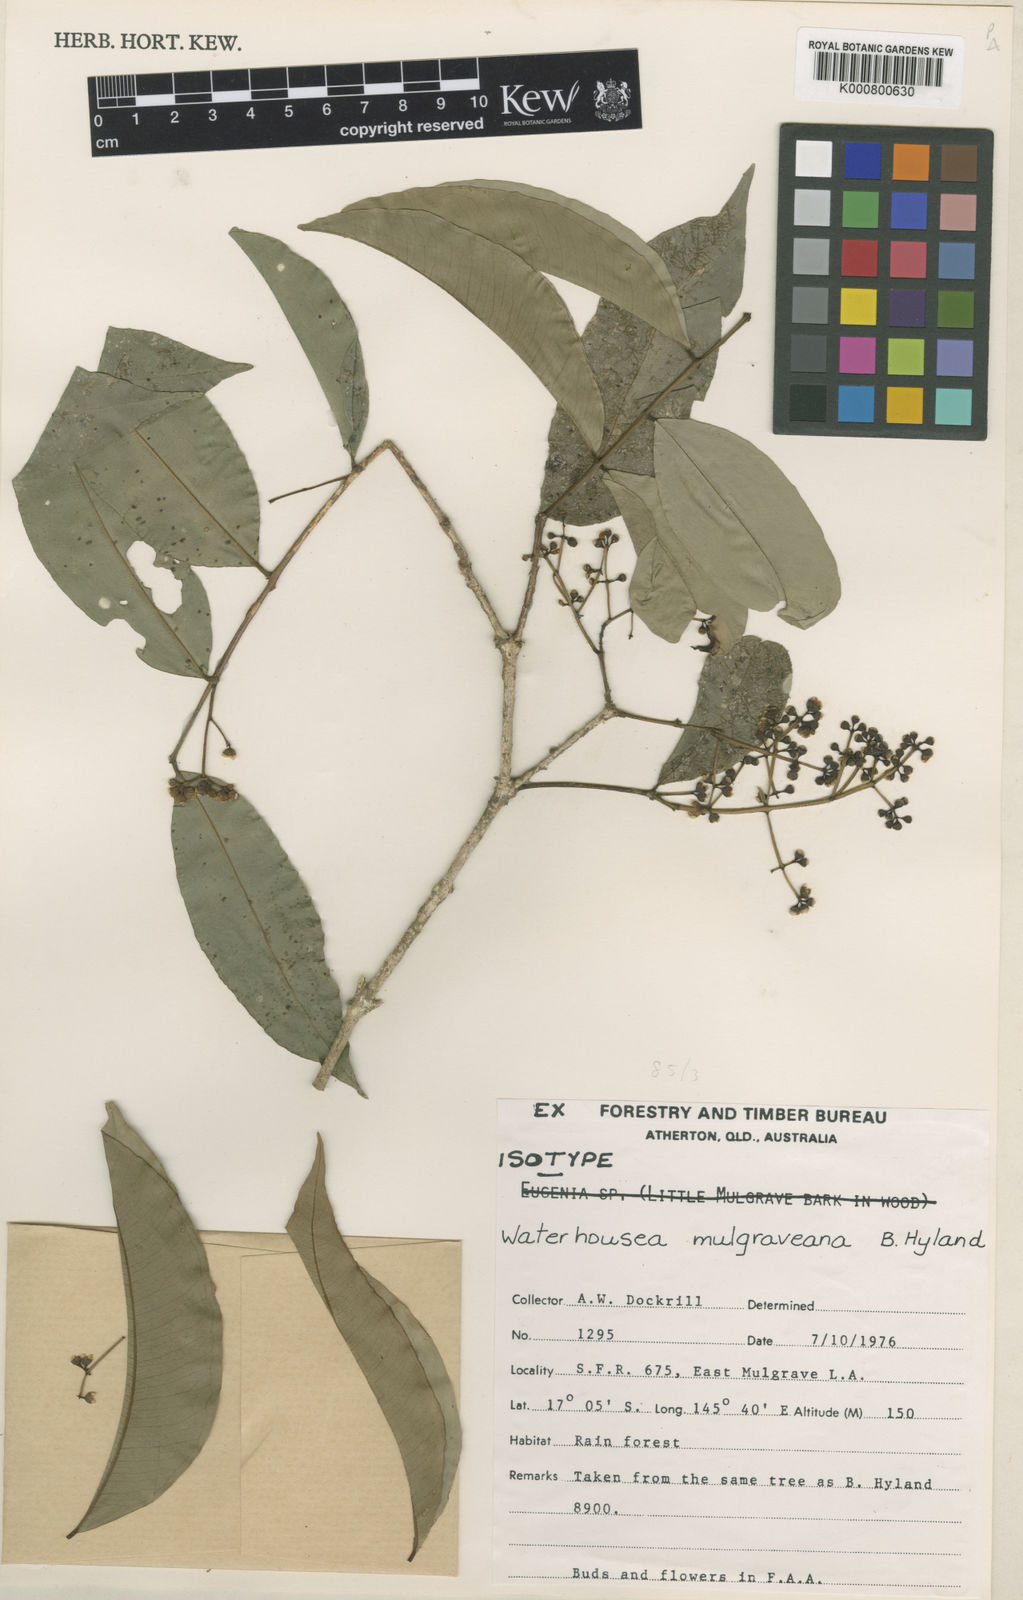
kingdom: Plantae
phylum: Tracheophyta
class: Magnoliopsida
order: Myrtales
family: Myrtaceae
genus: Syzygium
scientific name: Syzygium mulgraveanum
